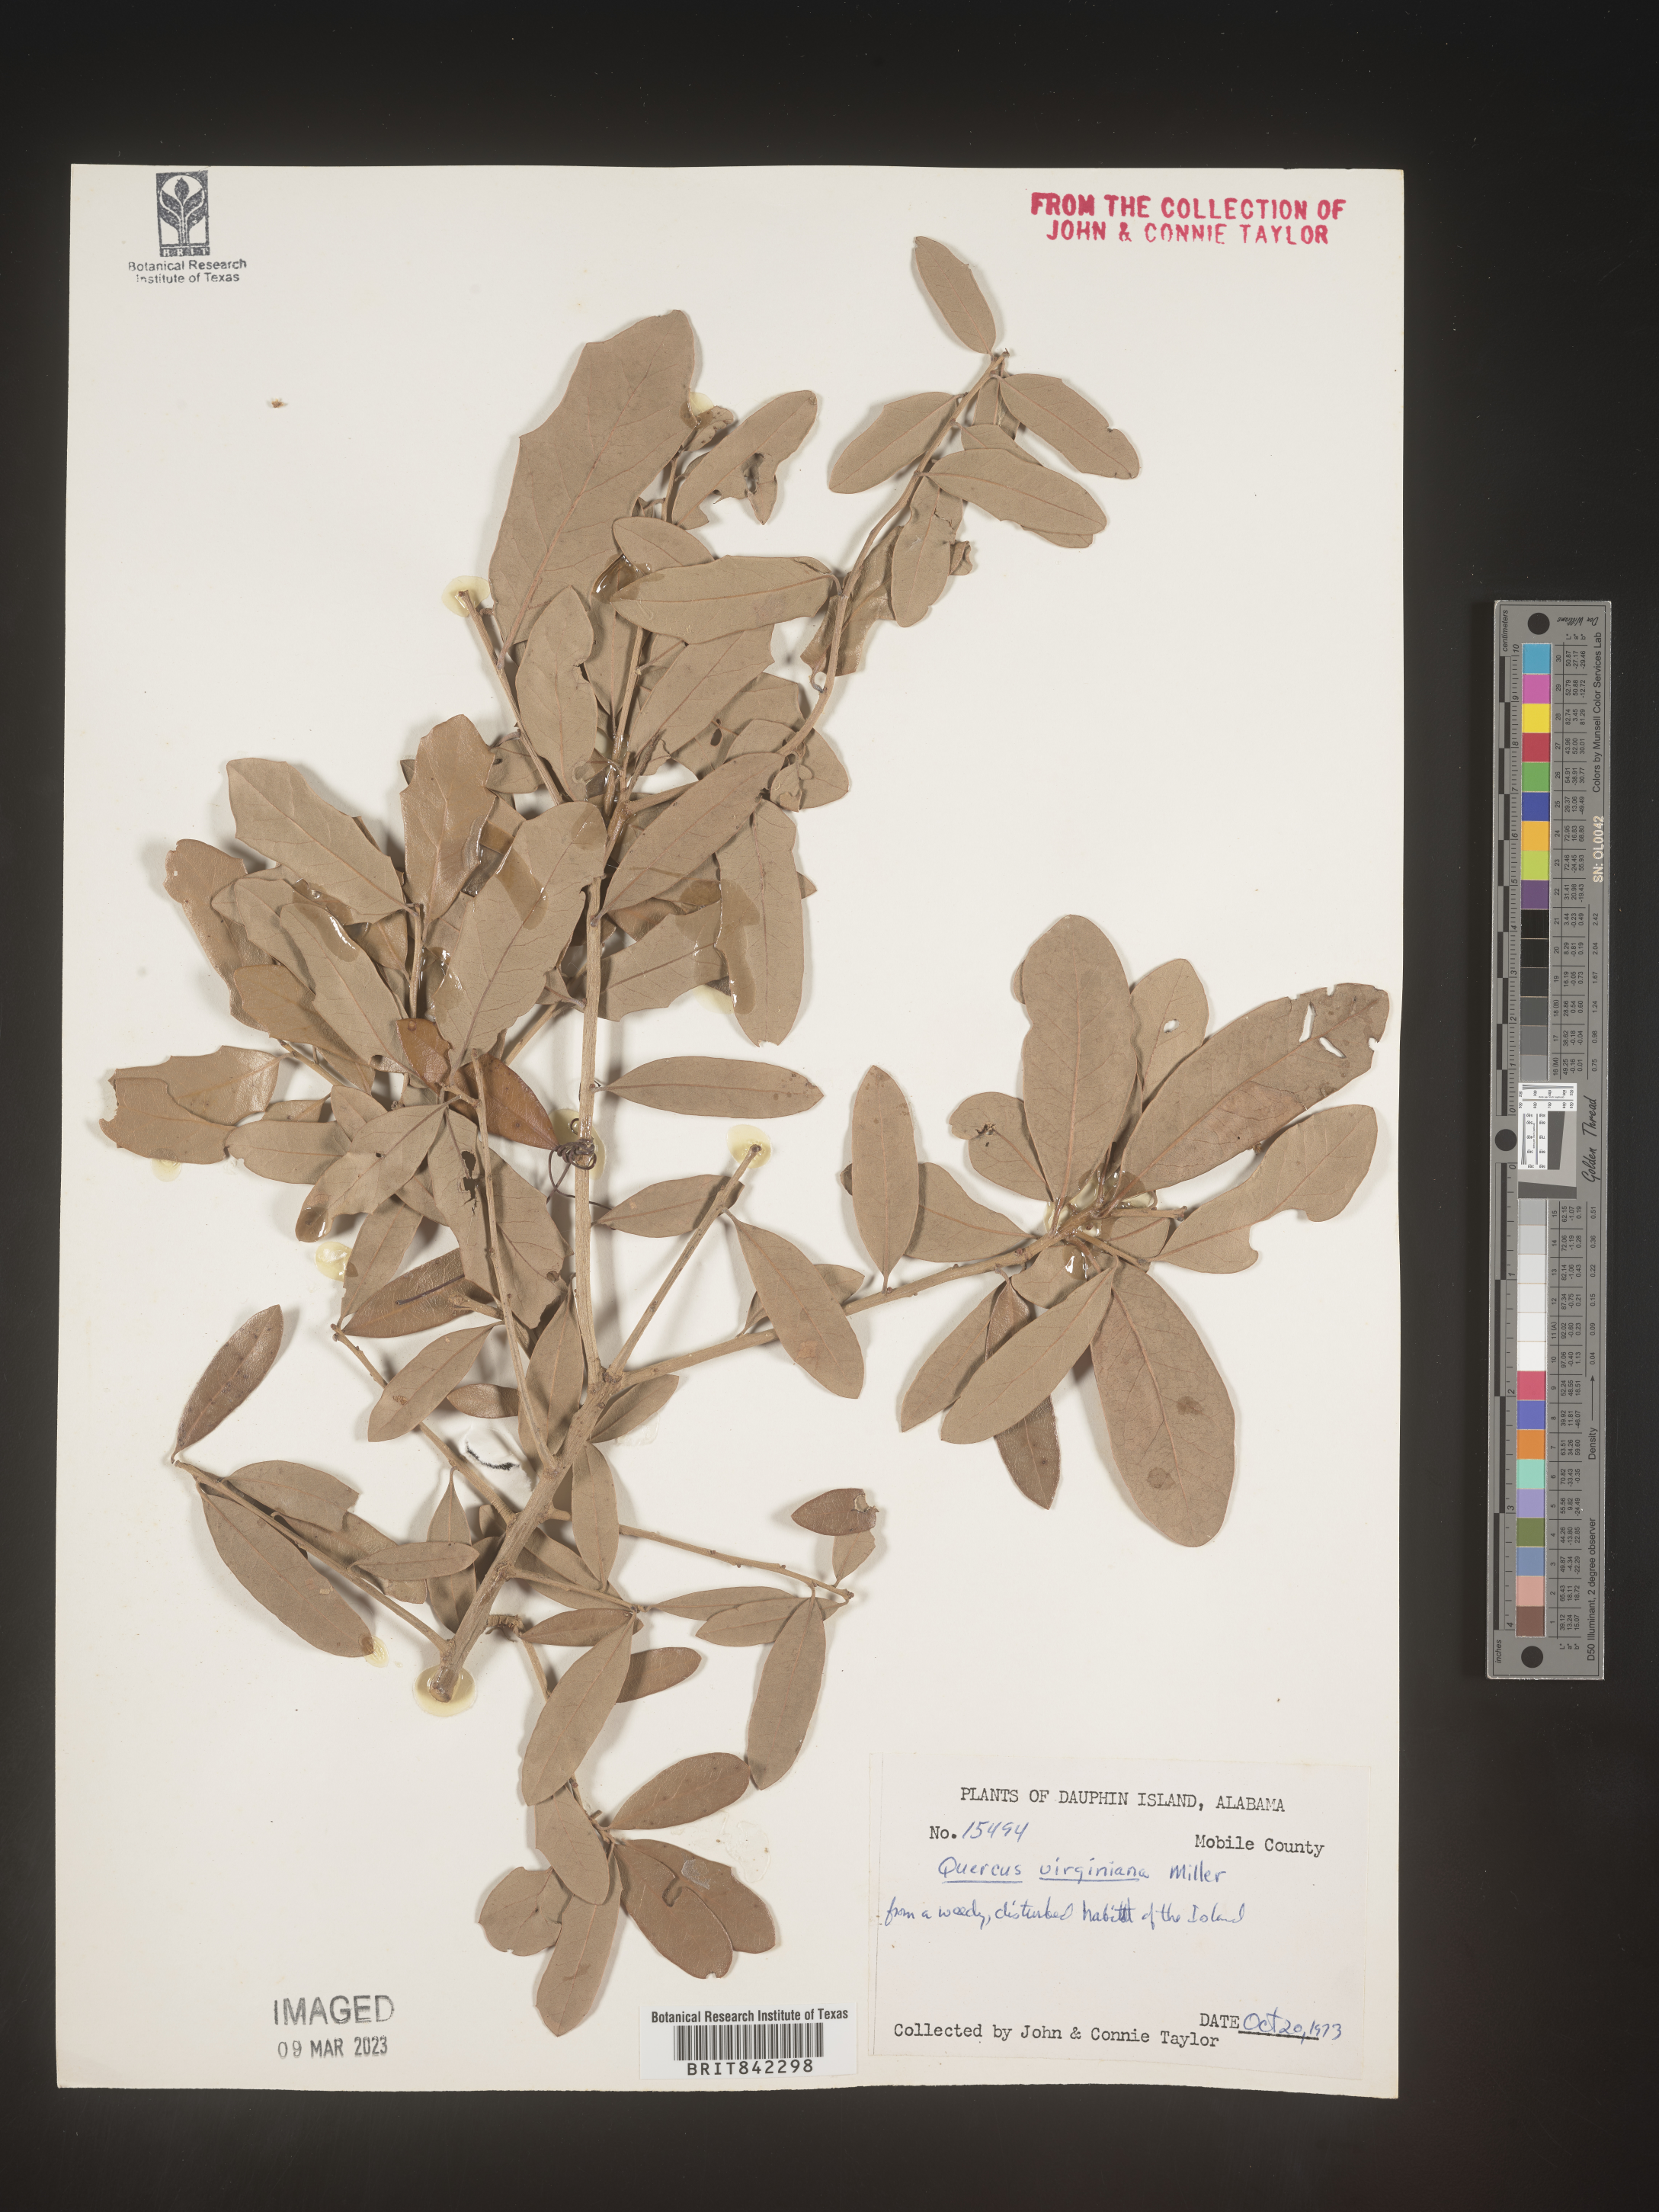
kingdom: Plantae
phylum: Tracheophyta
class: Magnoliopsida
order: Fagales
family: Fagaceae
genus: Quercus
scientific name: Quercus virginiana
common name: Southern live oak
